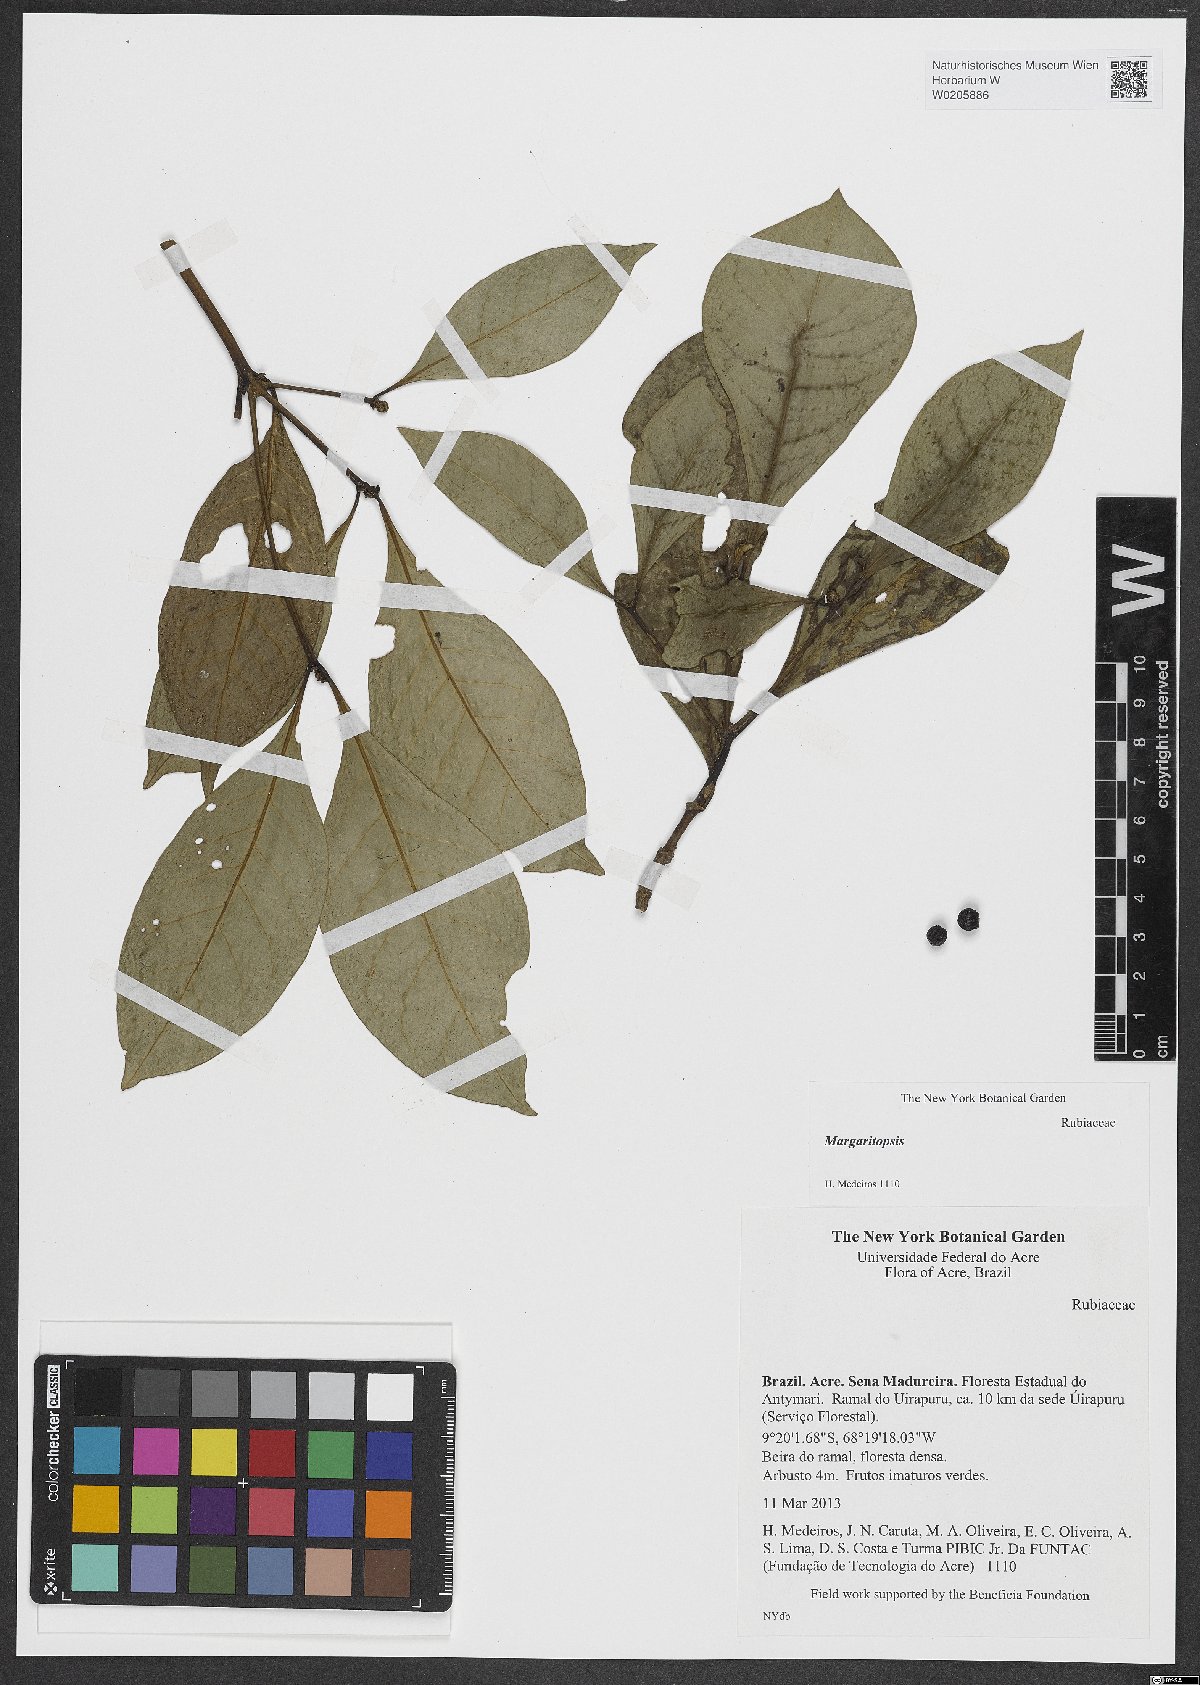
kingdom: Plantae
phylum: Tracheophyta
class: Magnoliopsida
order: Gentianales
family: Rubiaceae
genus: Eumachia
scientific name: Eumachia cephalantha
